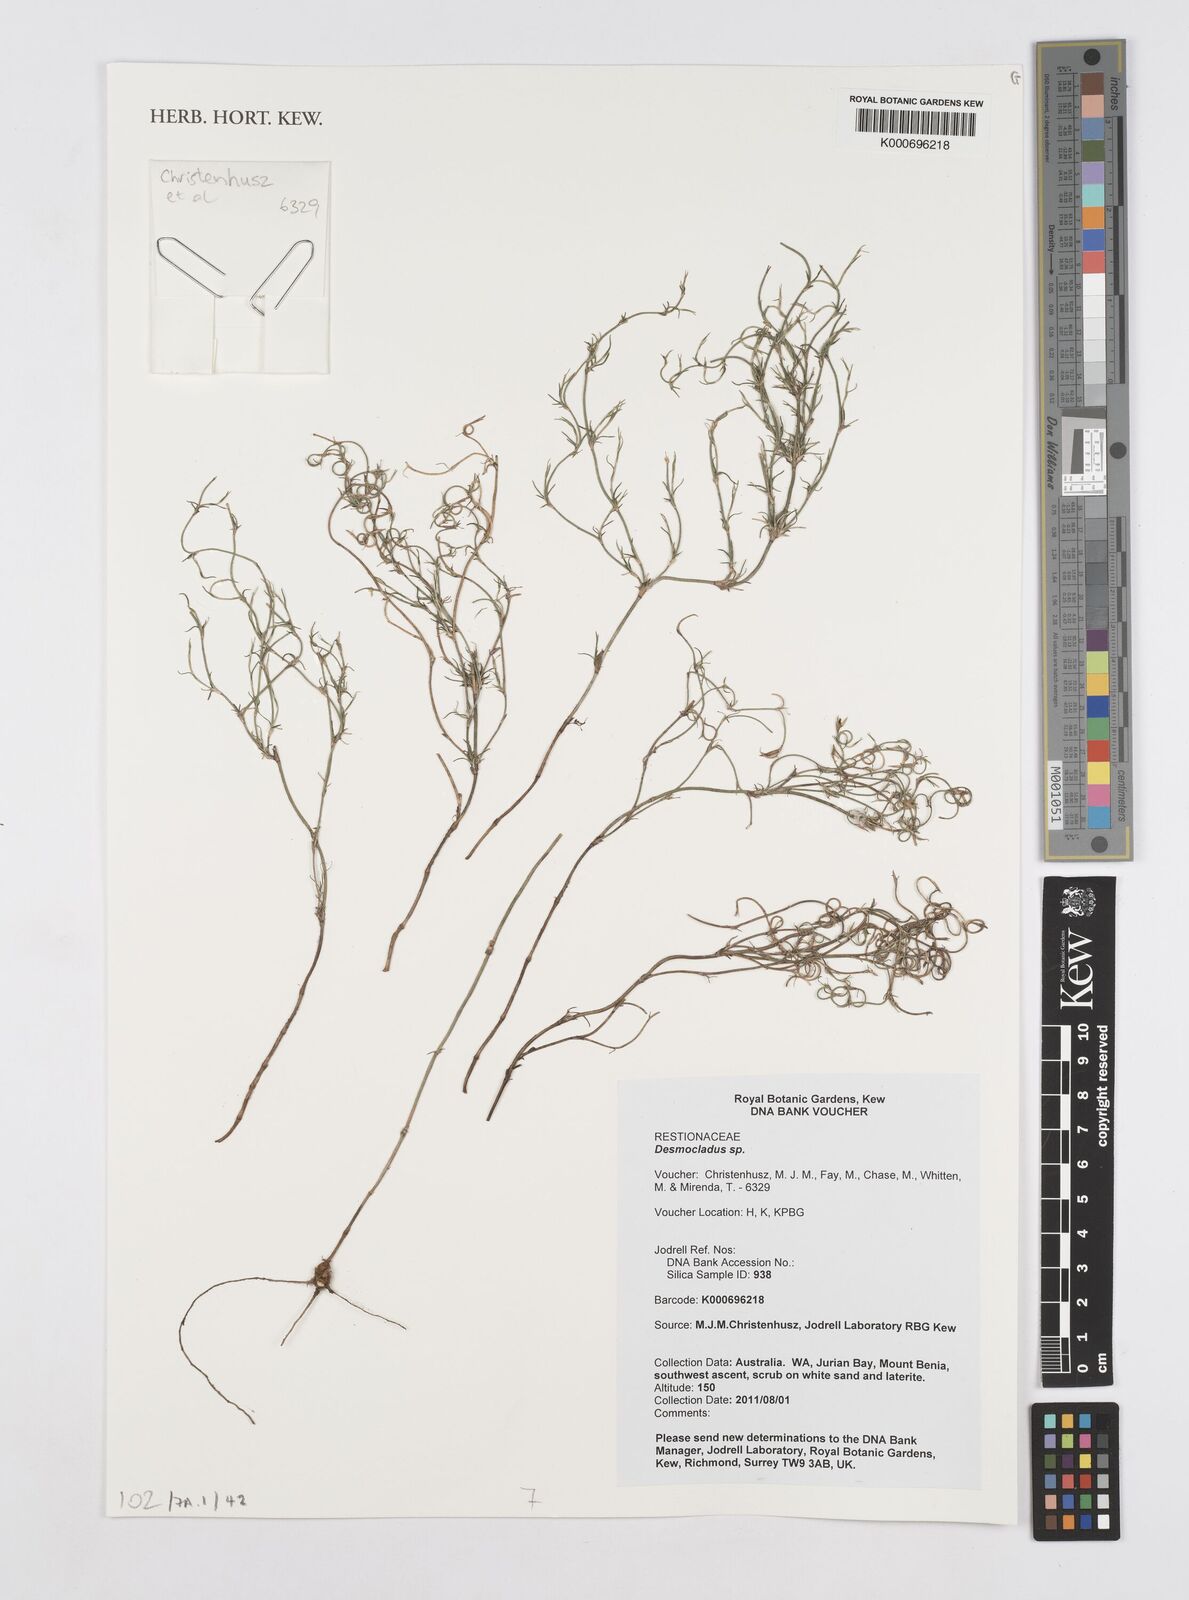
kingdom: Plantae
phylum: Tracheophyta
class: Liliopsida
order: Poales
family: Restionaceae
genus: Desmocladus
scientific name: Desmocladus
